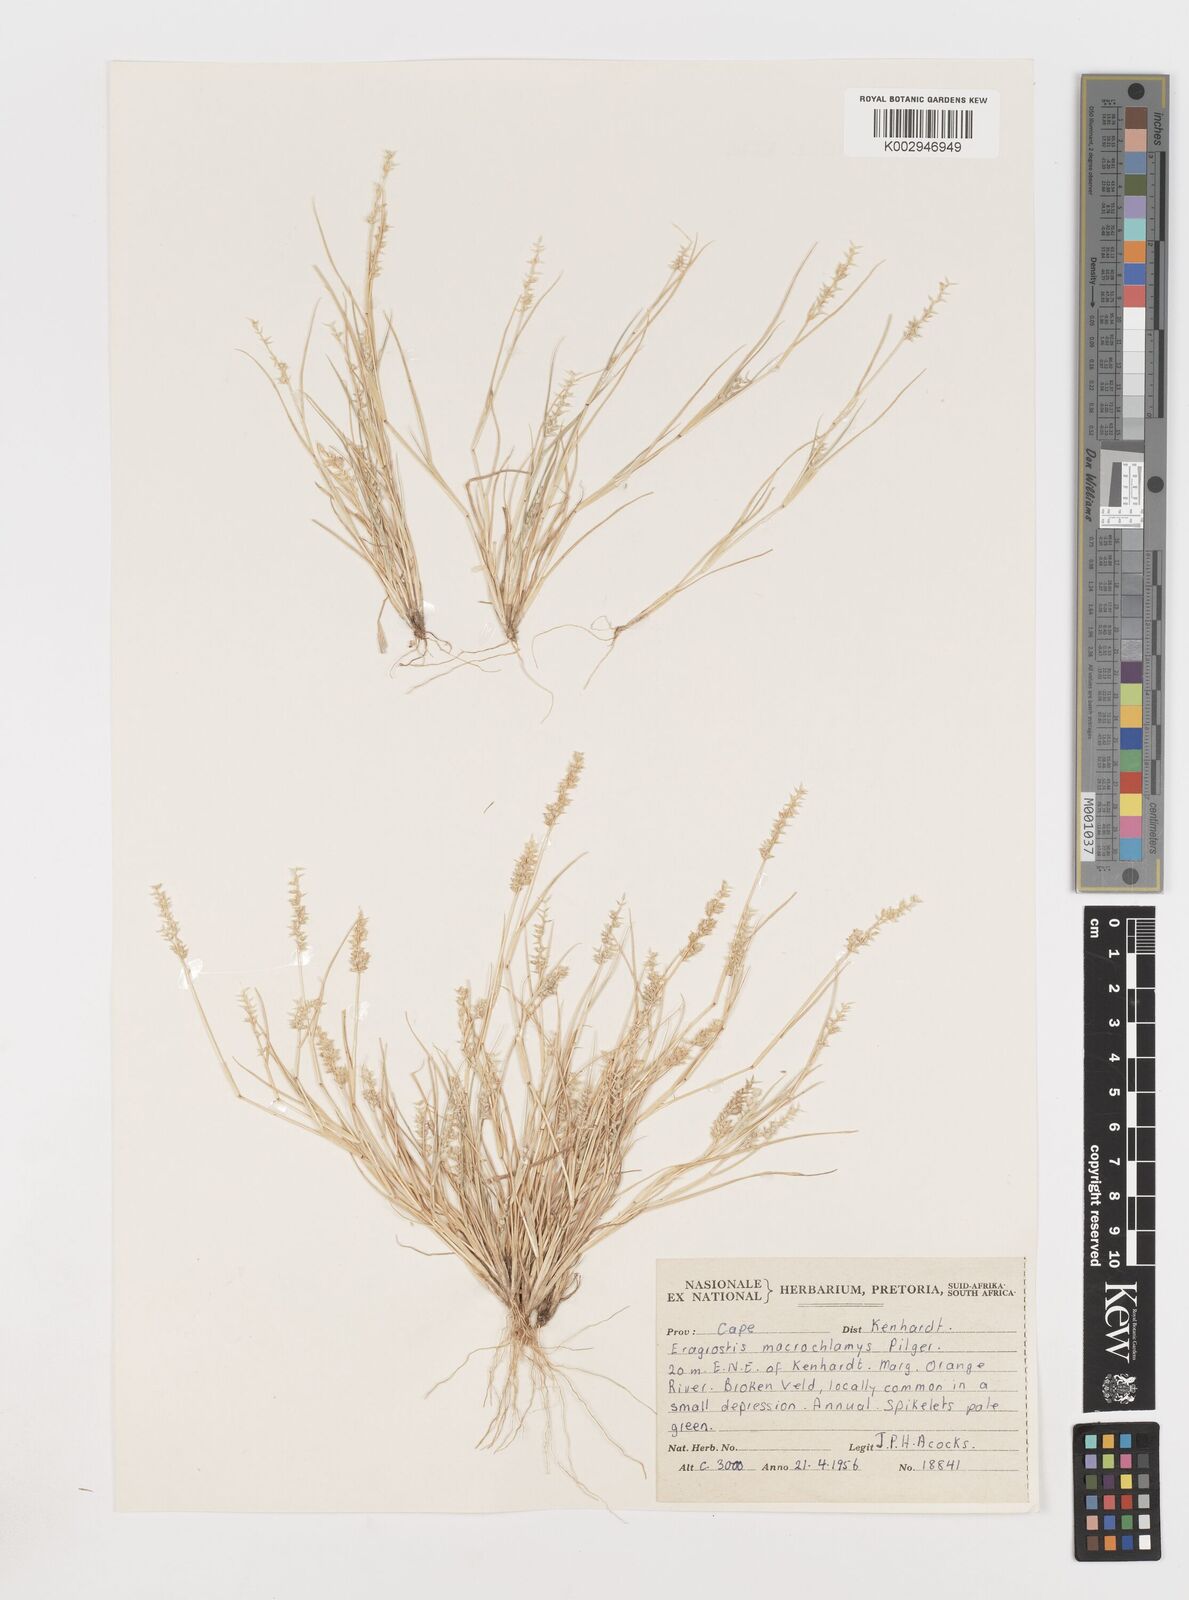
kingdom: Plantae
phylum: Tracheophyta
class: Liliopsida
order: Poales
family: Poaceae
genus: Eragrostis
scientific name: Eragrostis macrochlamys
